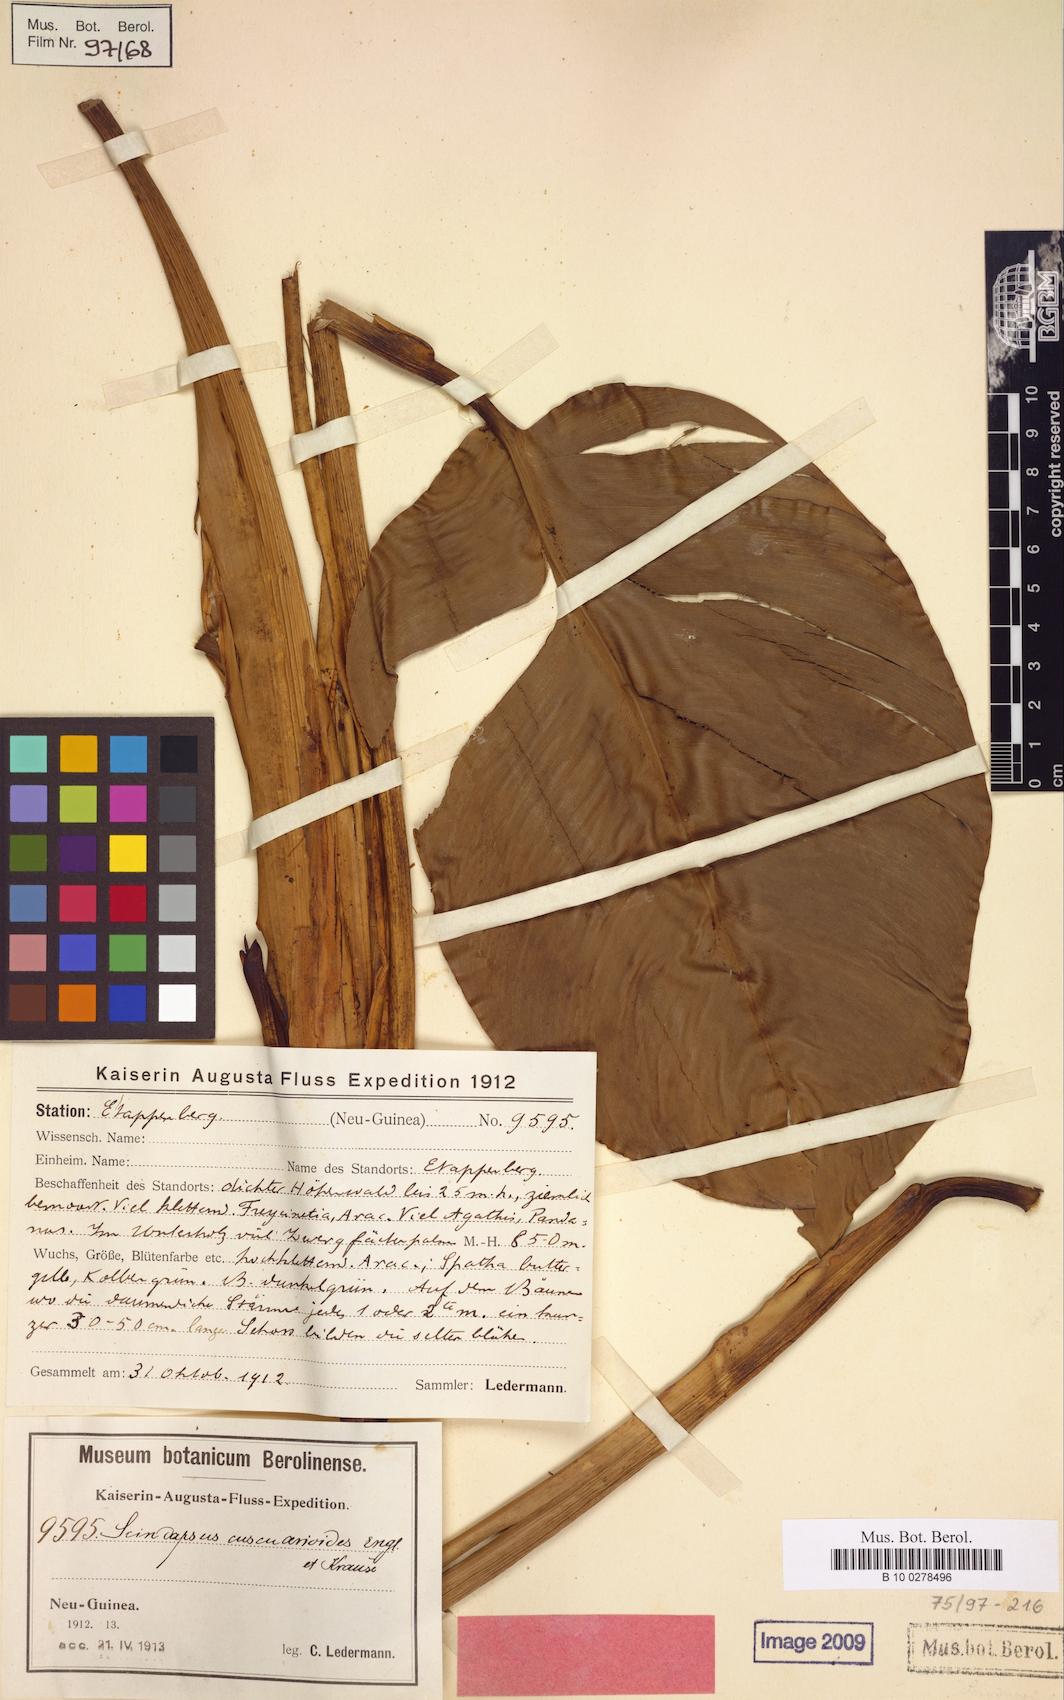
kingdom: Plantae
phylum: Tracheophyta
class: Liliopsida
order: Alismatales
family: Araceae
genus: Scindapsus
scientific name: Scindapsus cuscuarioides
